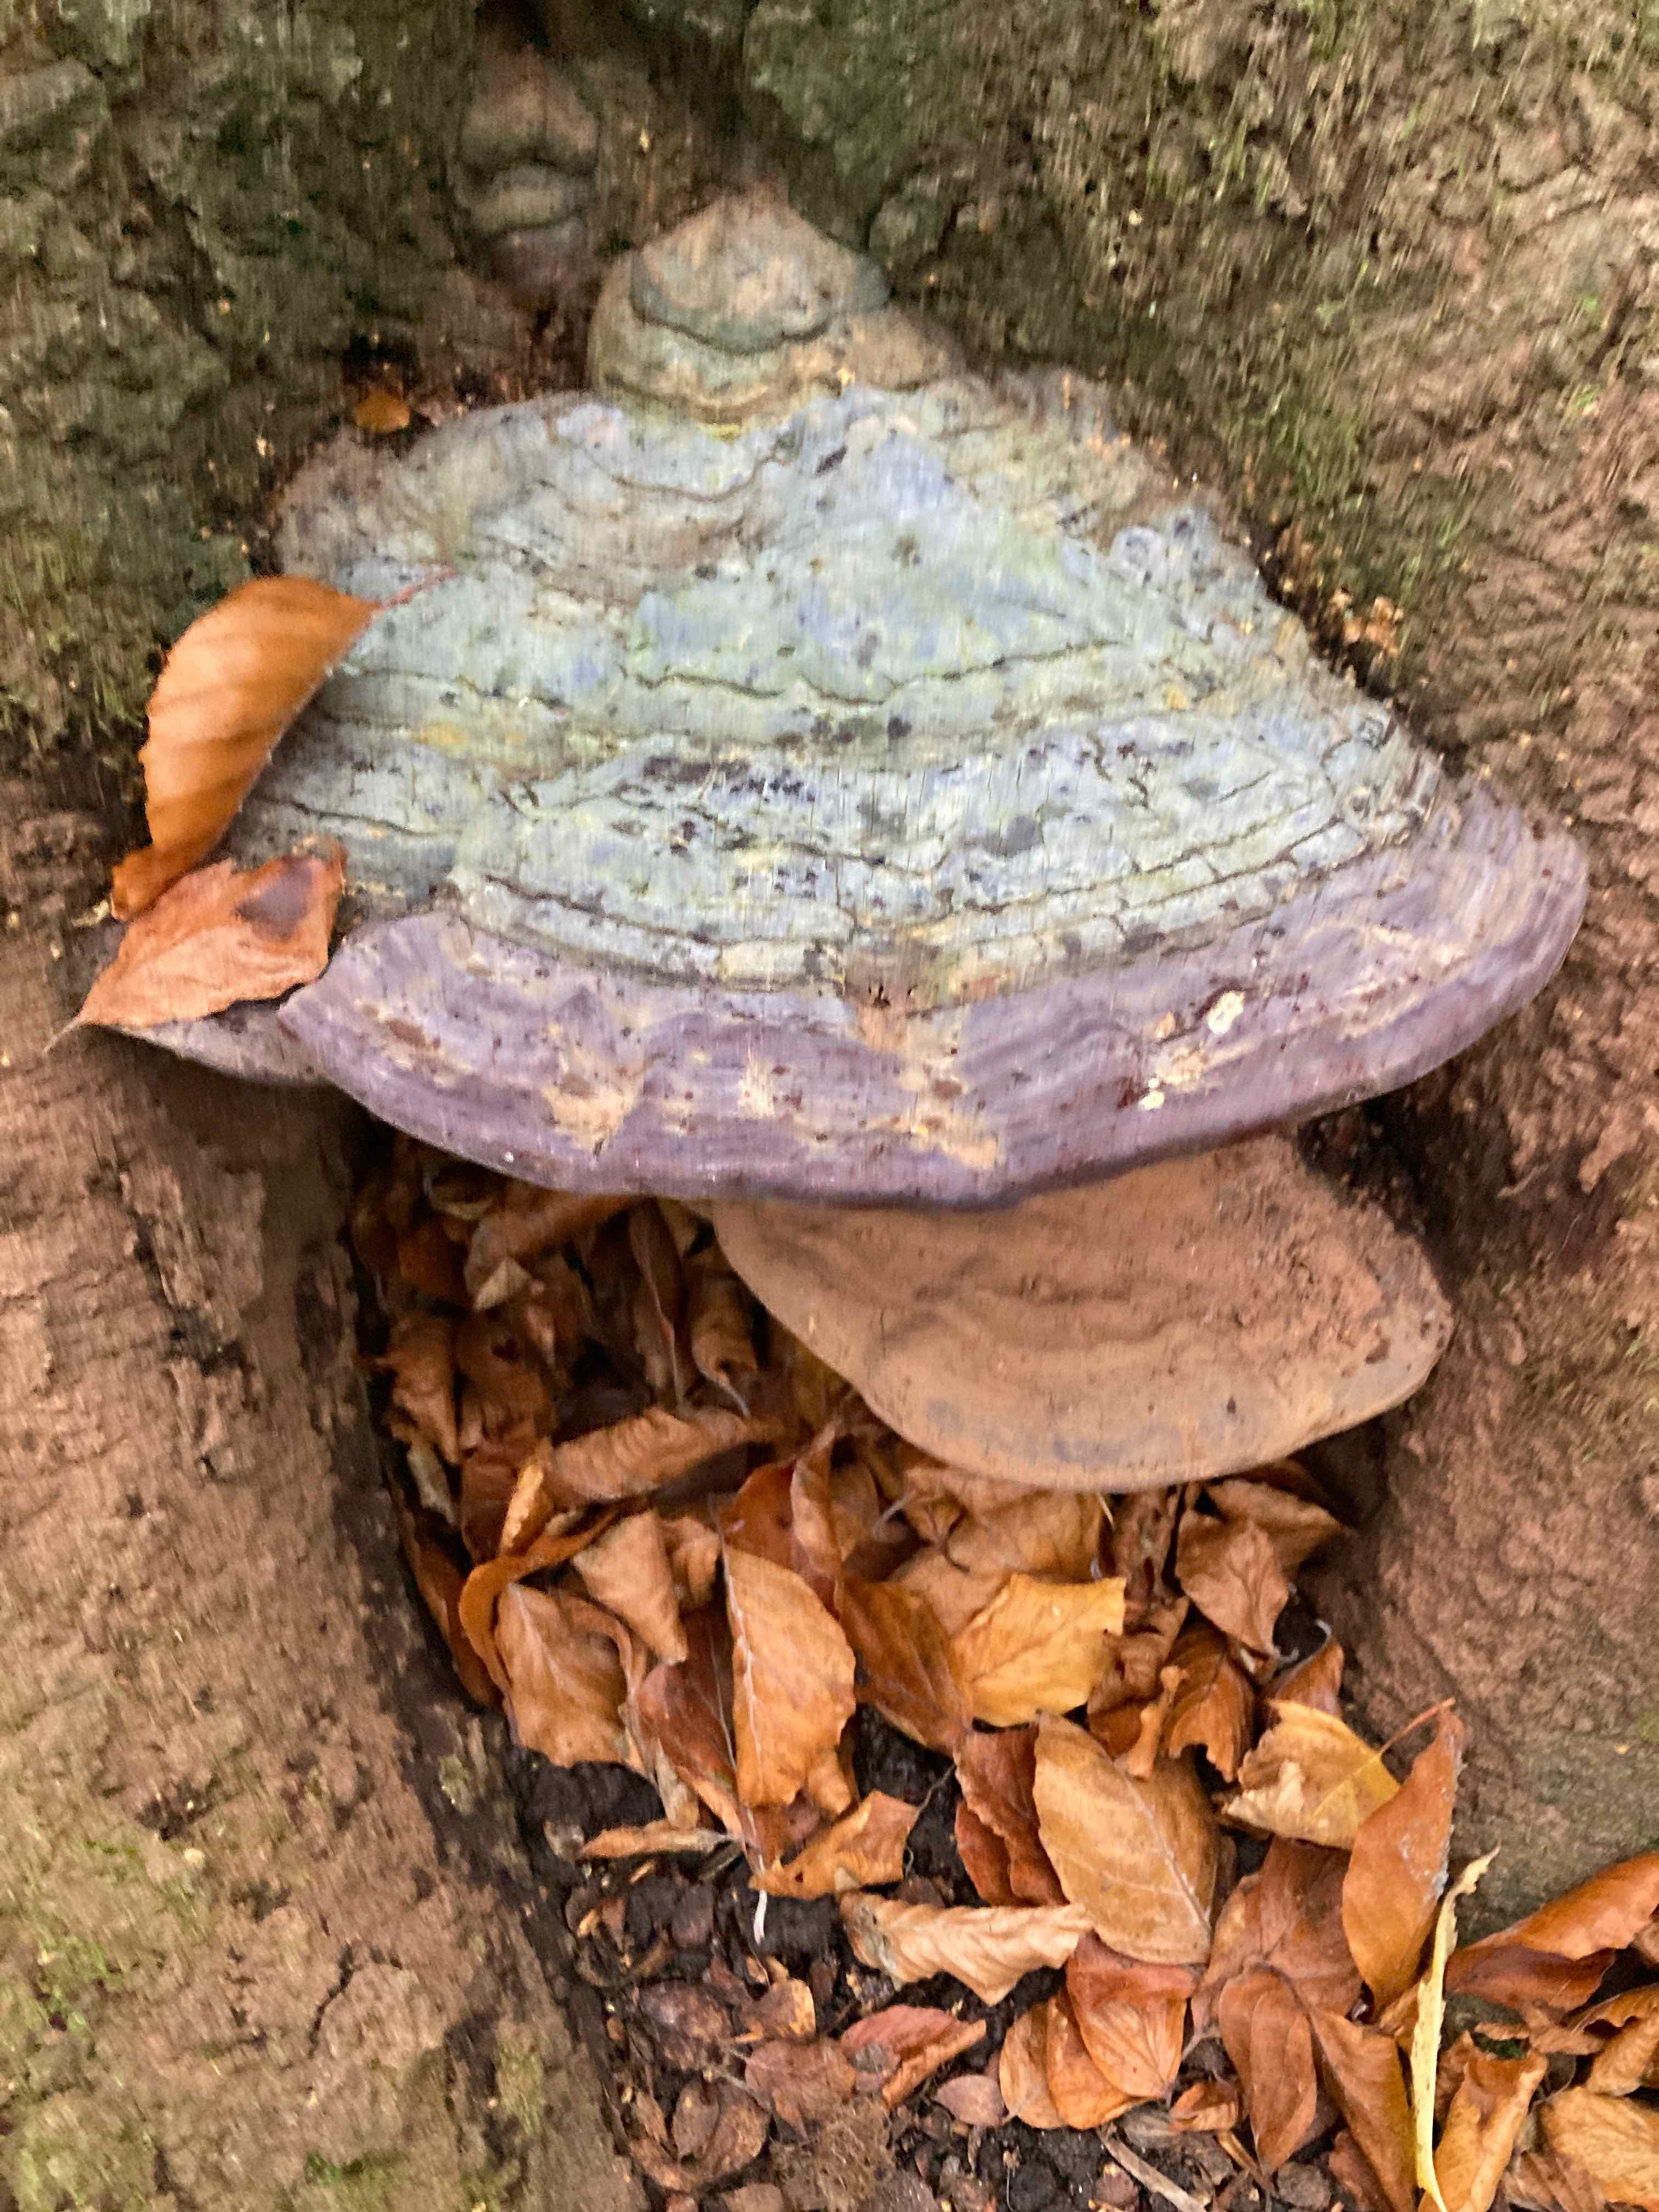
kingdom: Fungi
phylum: Basidiomycota
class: Agaricomycetes
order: Polyporales
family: Polyporaceae
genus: Ganoderma
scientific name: Ganoderma pfeifferi
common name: kobberrød lakporesvamp
